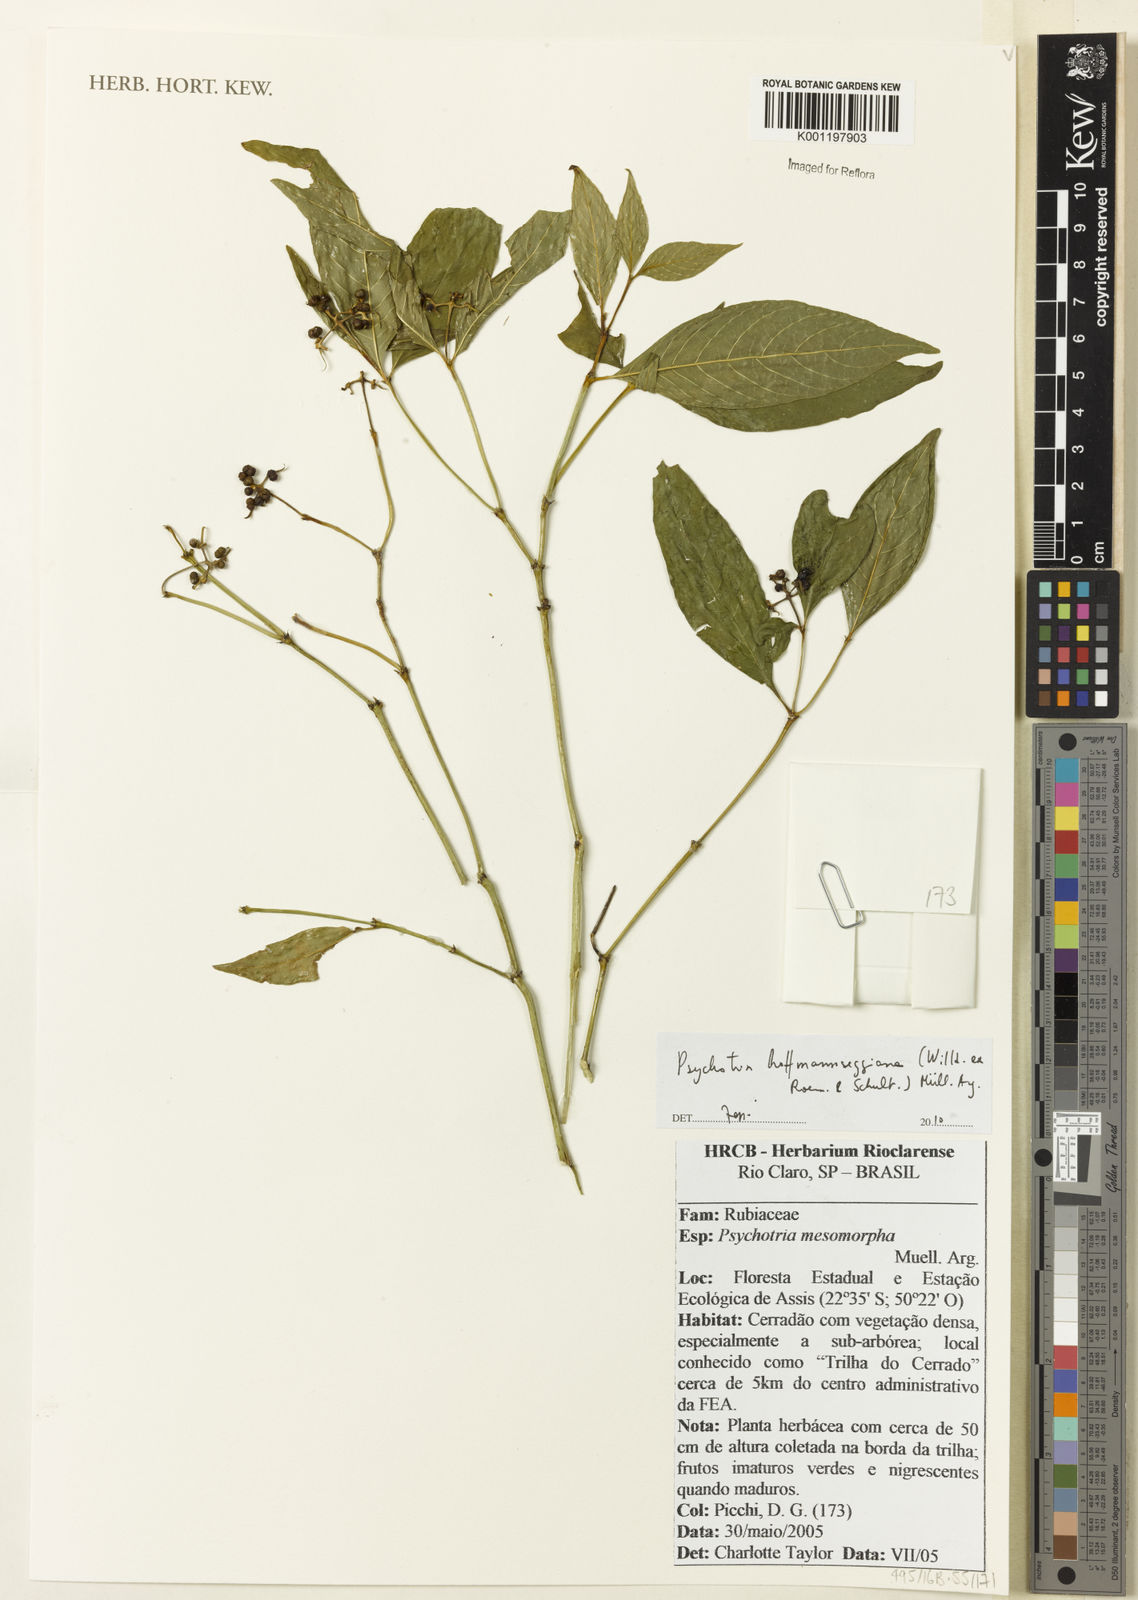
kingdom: Plantae
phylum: Tracheophyta
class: Magnoliopsida
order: Gentianales
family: Rubiaceae
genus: Psychotria
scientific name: Psychotria
